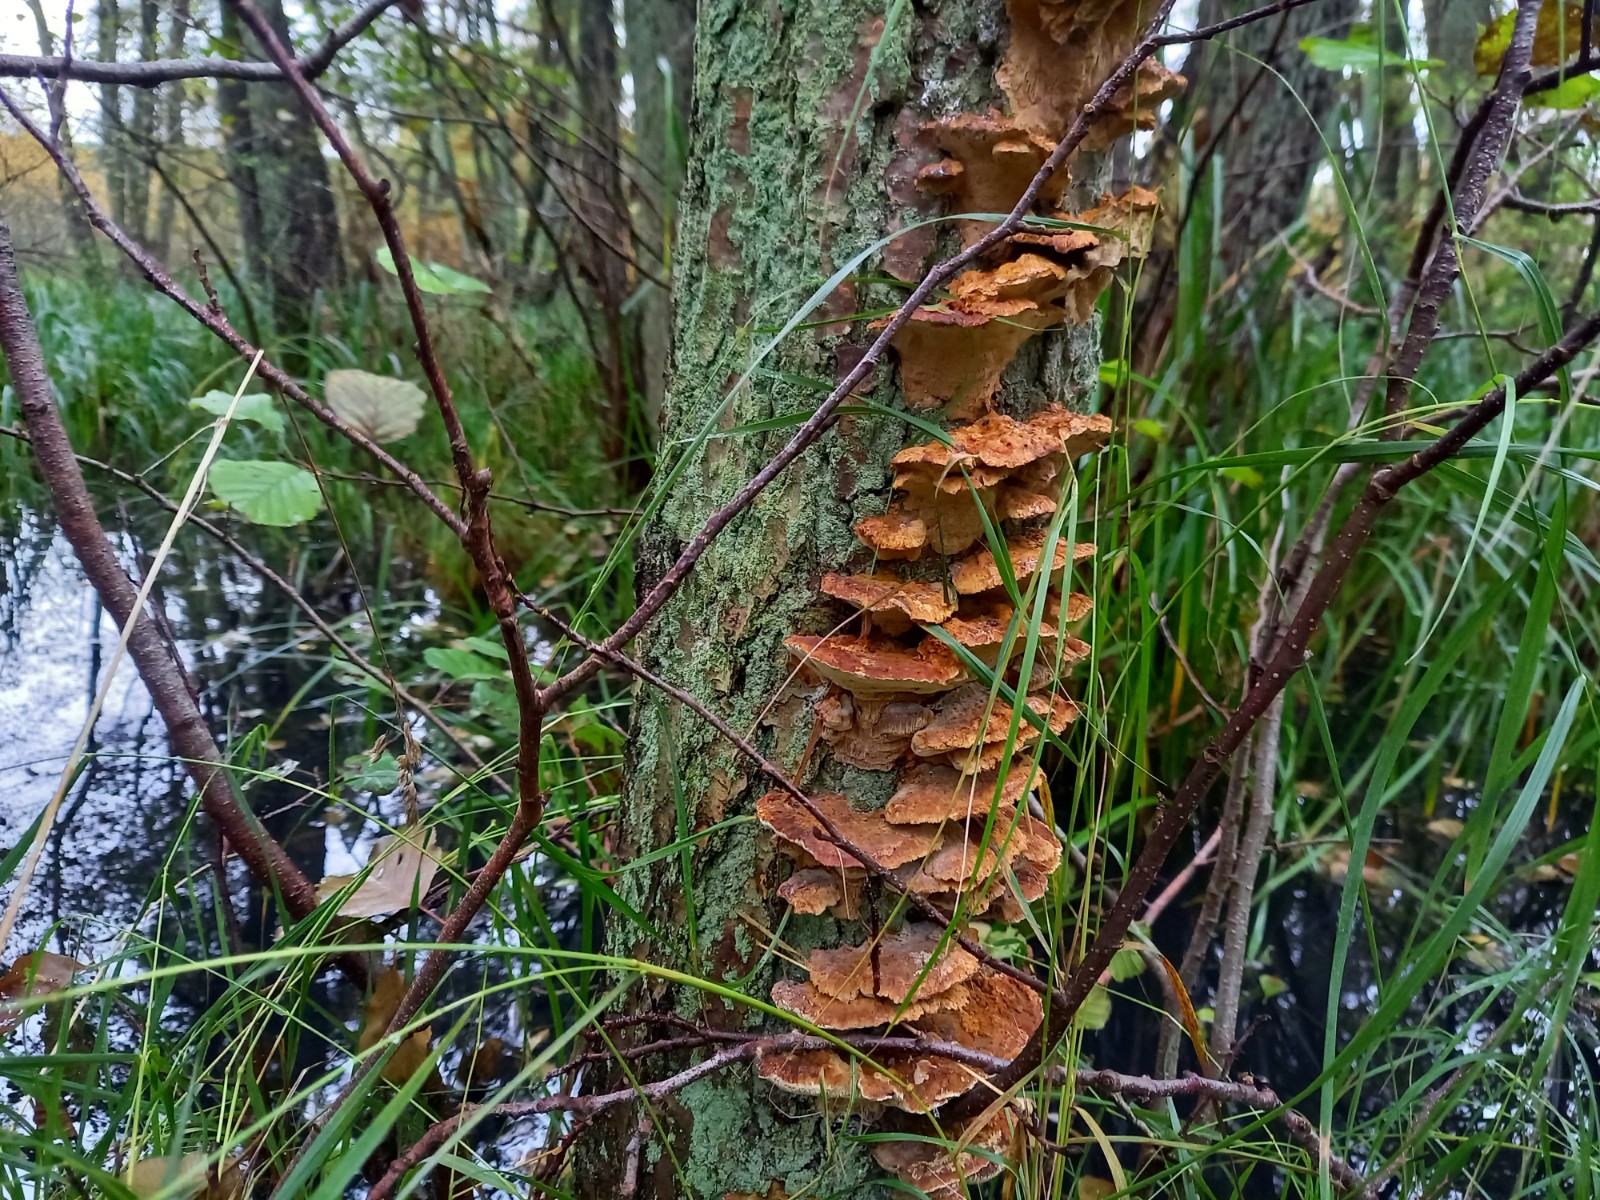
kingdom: Fungi
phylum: Basidiomycota
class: Agaricomycetes
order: Hymenochaetales
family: Hymenochaetaceae
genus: Xanthoporia
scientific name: Xanthoporia radiata
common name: elle-spejlporesvamp
